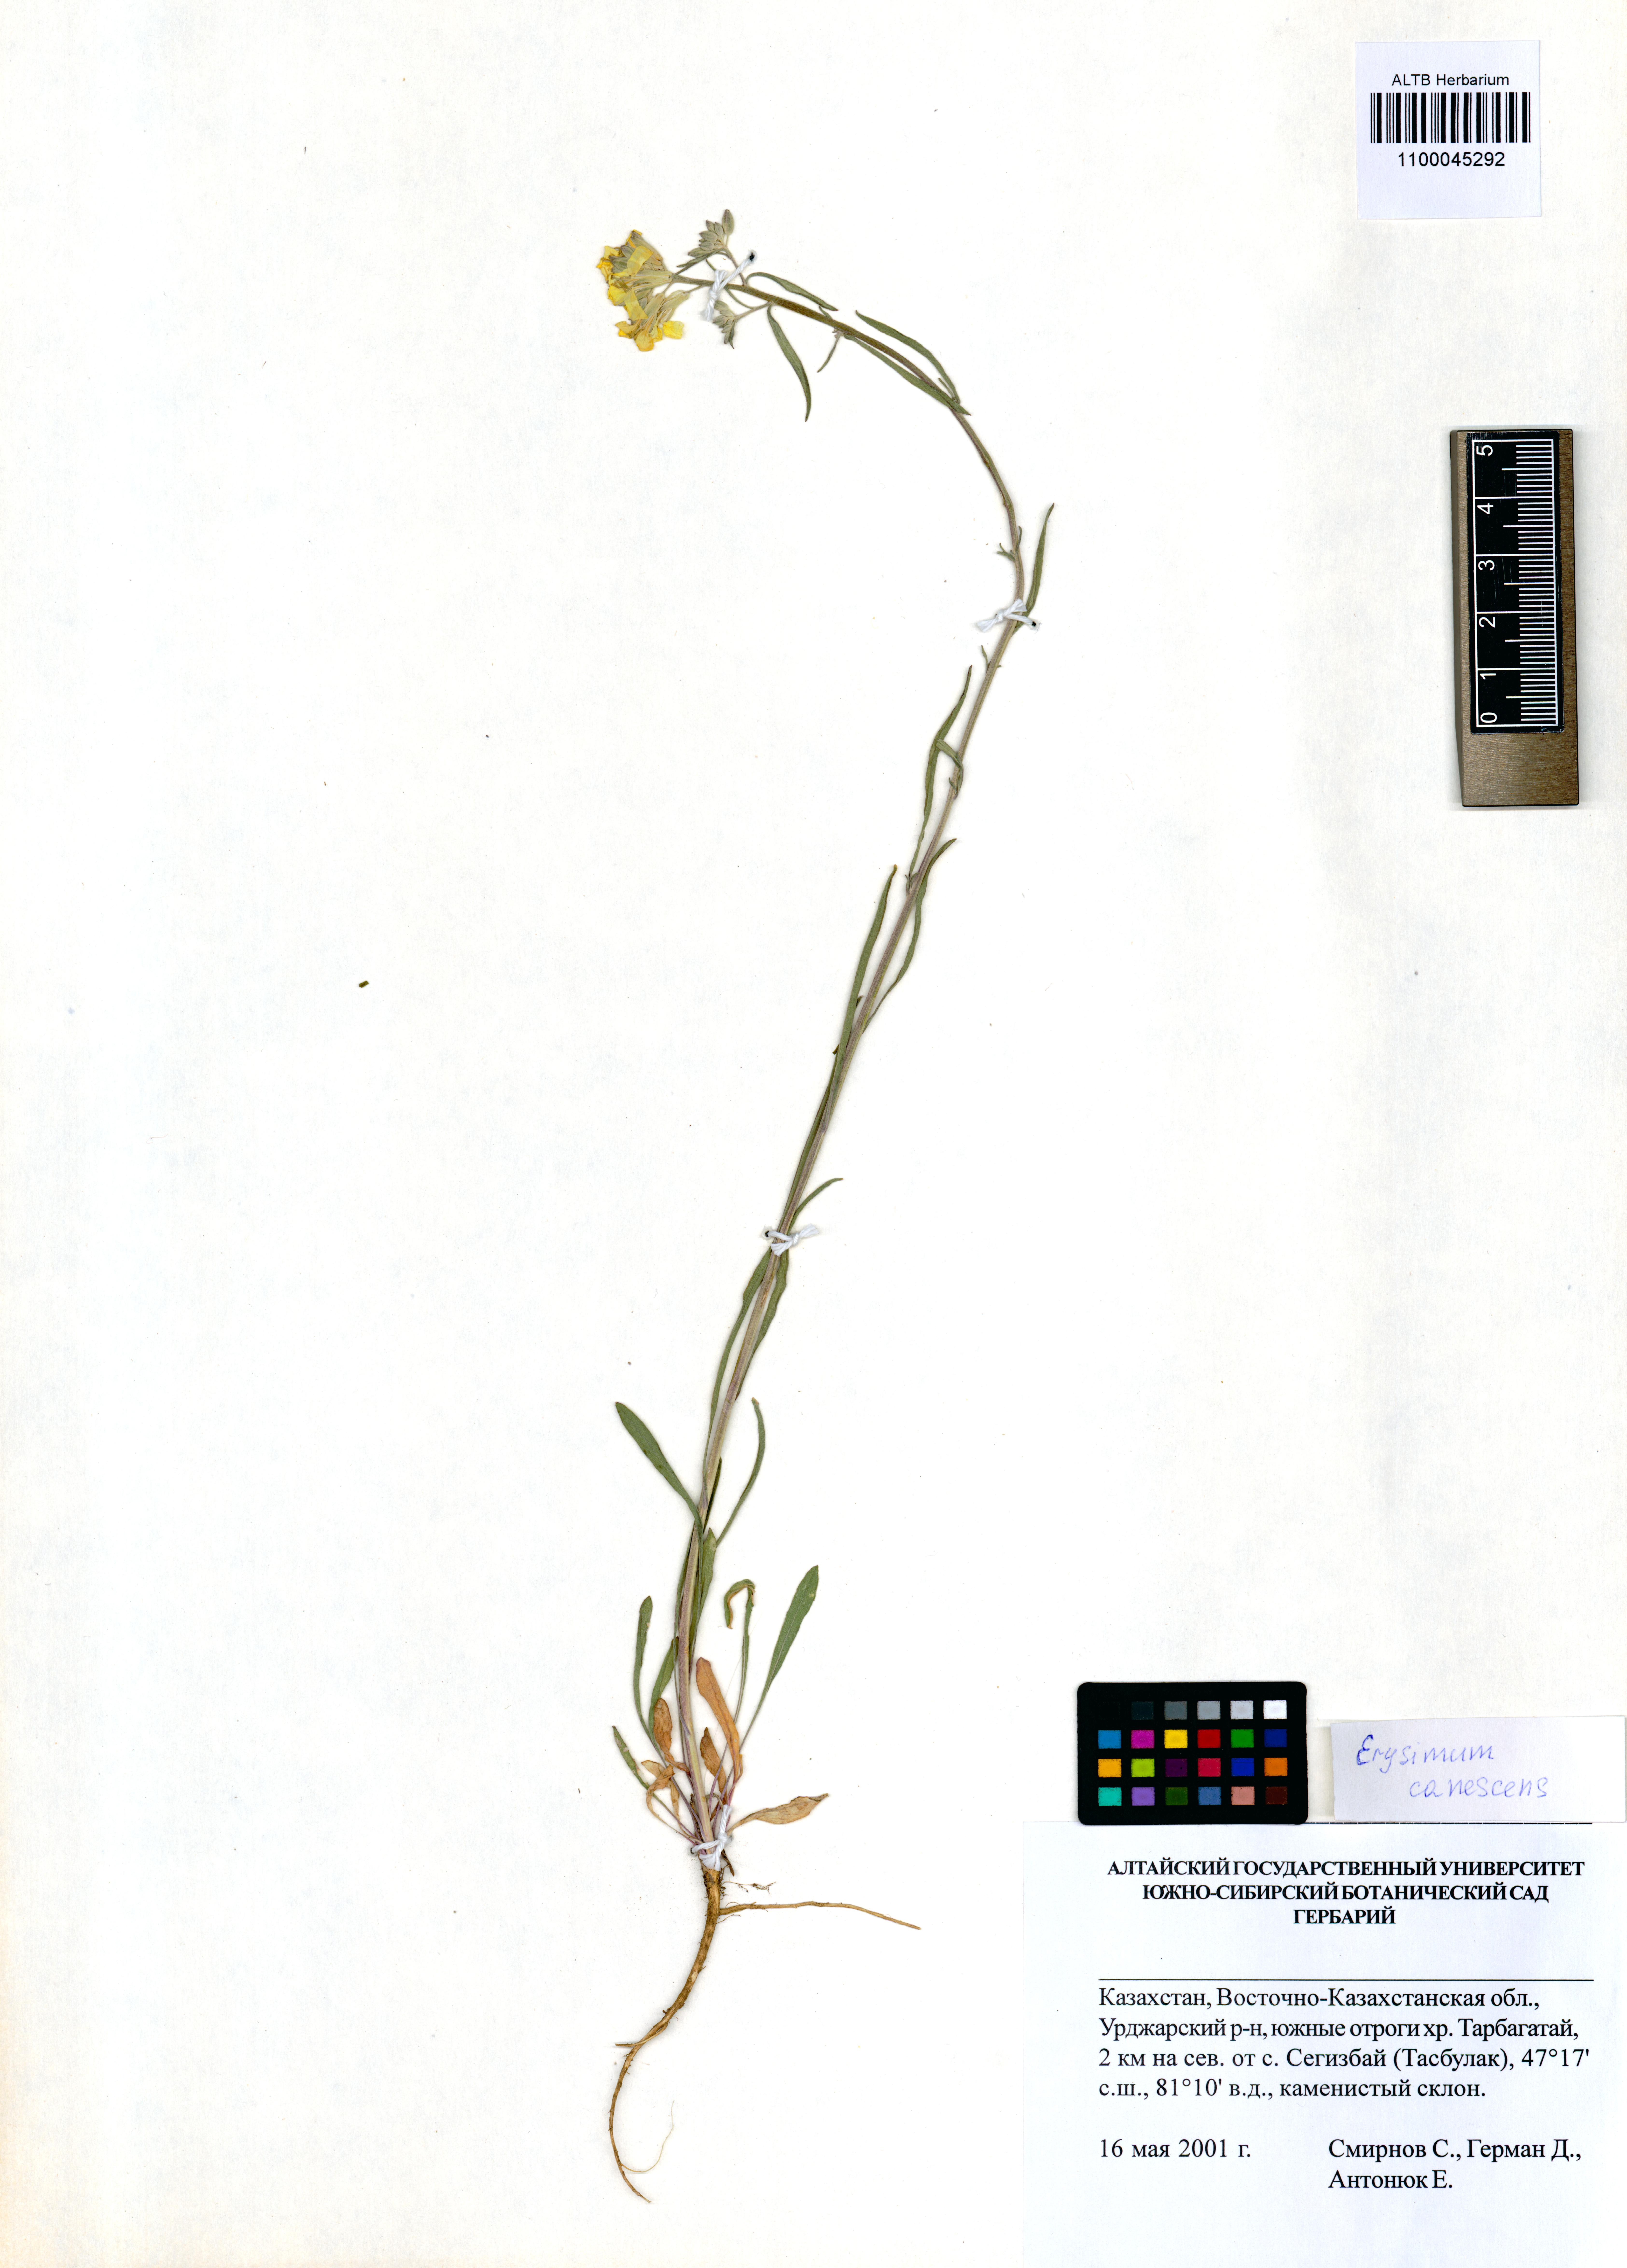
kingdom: Plantae
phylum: Tracheophyta
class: Magnoliopsida
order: Brassicales
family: Brassicaceae
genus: Erysimum
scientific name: Erysimum canescens
